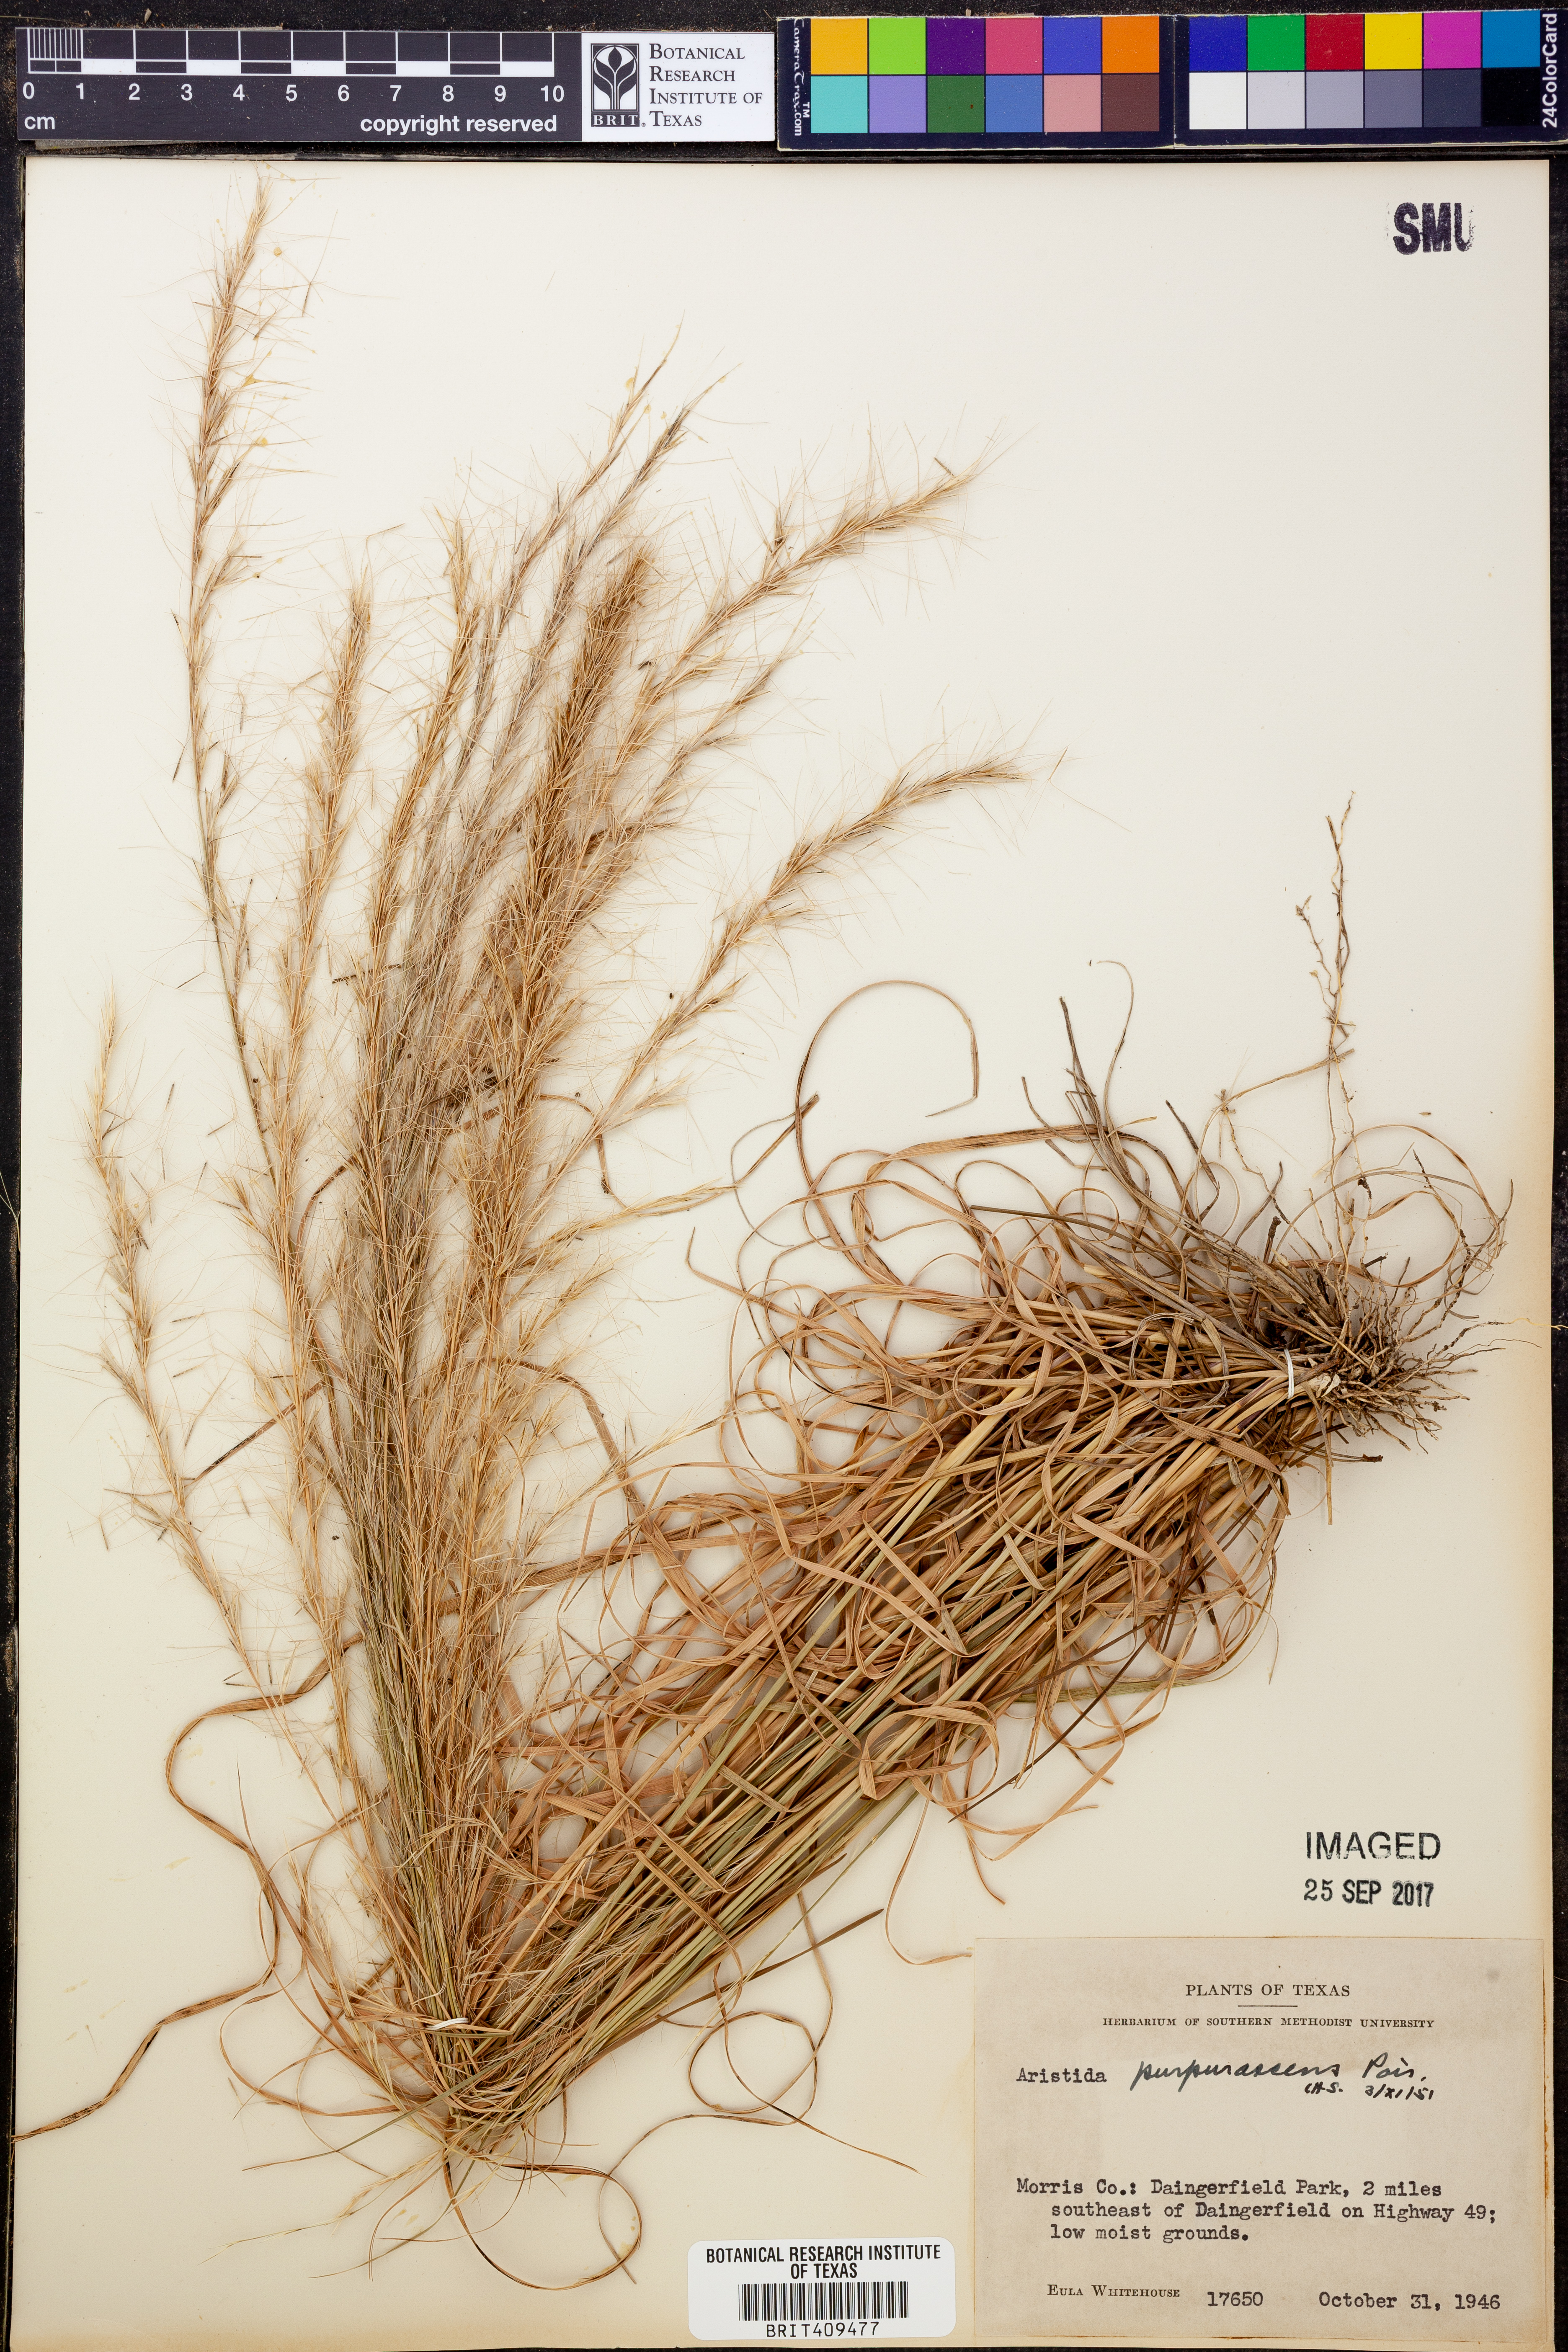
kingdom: Plantae
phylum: Tracheophyta
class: Liliopsida
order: Poales
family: Poaceae
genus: Aristida
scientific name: Aristida purpurascens
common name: Arrow-feather
